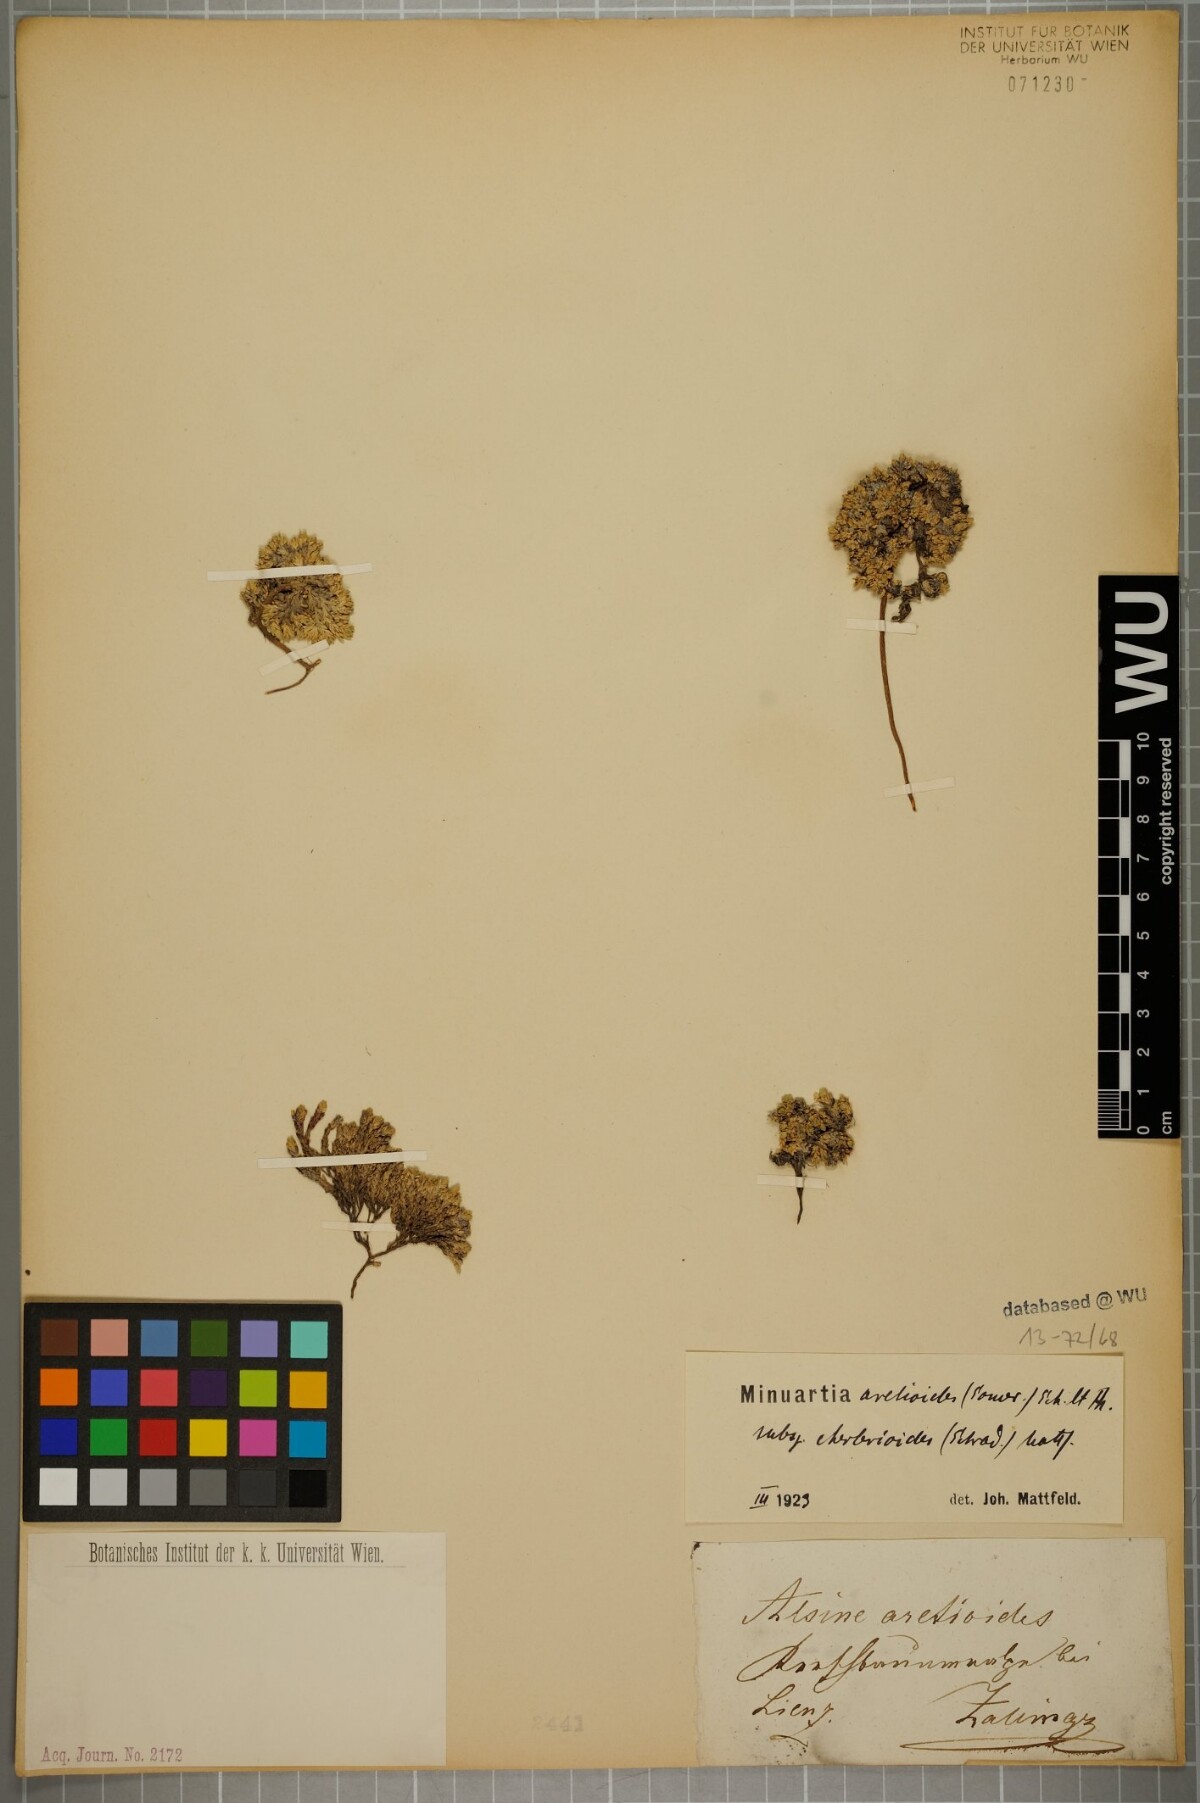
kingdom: Plantae
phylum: Tracheophyta
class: Magnoliopsida
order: Caryophyllales
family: Caryophyllaceae
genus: Facchinia
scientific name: Facchinia cherlerioides
